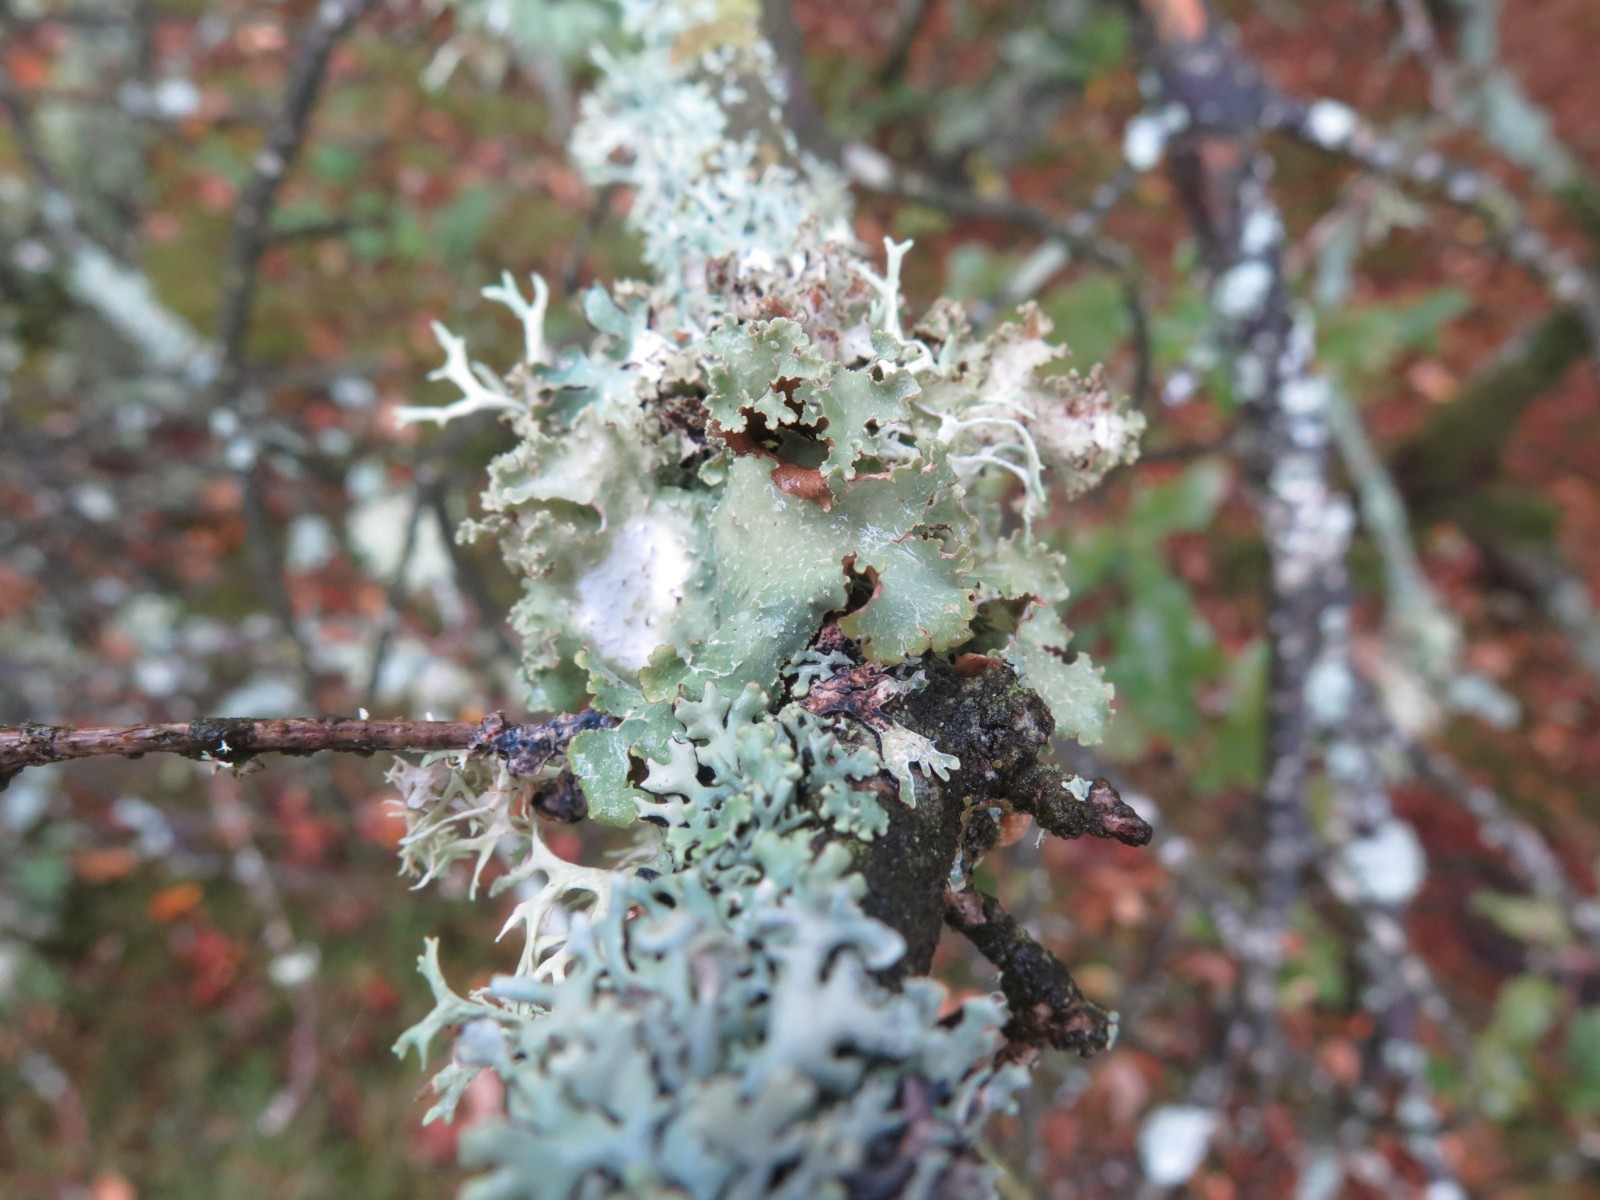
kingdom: Fungi
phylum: Ascomycota
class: Lecanoromycetes
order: Lecanorales
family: Parmeliaceae
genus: Platismatia
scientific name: Platismatia glauca
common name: blågrå papirlav
